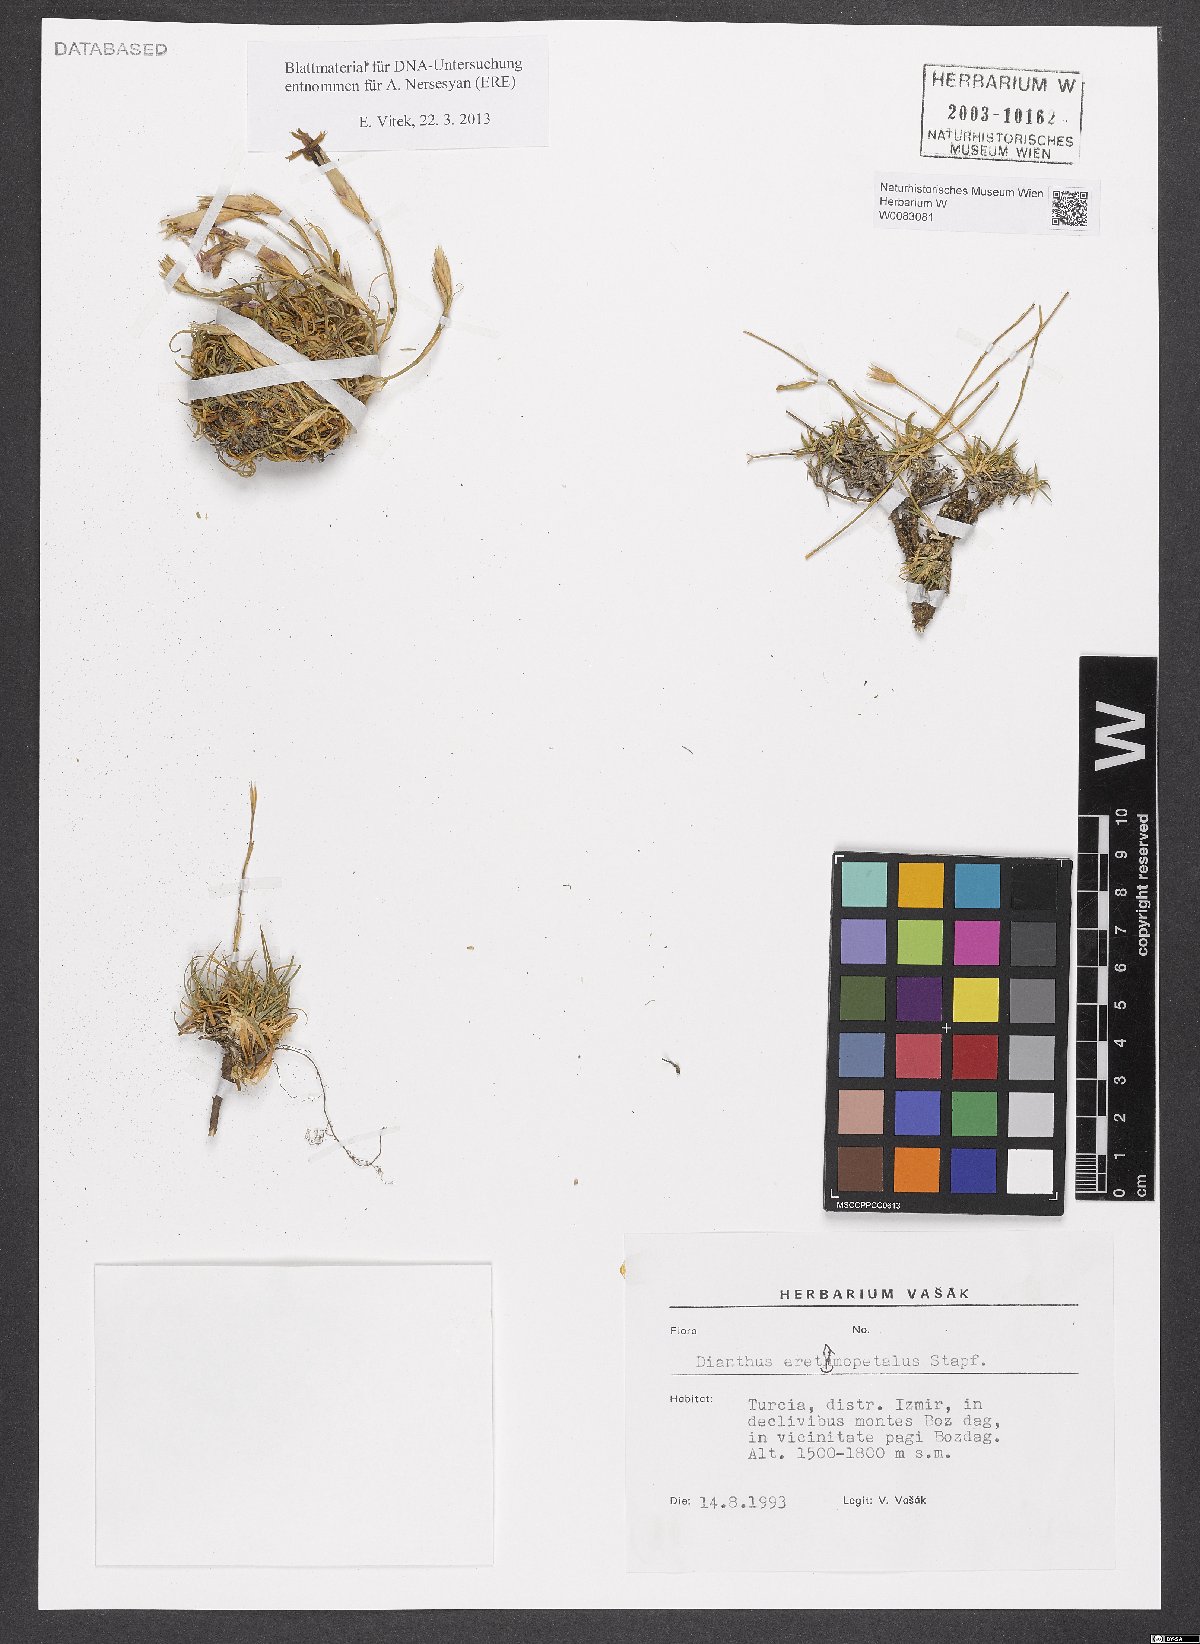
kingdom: Plantae
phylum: Tracheophyta
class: Magnoliopsida
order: Caryophyllales
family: Caryophyllaceae
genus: Dianthus
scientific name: Dianthus eretmopetalus
